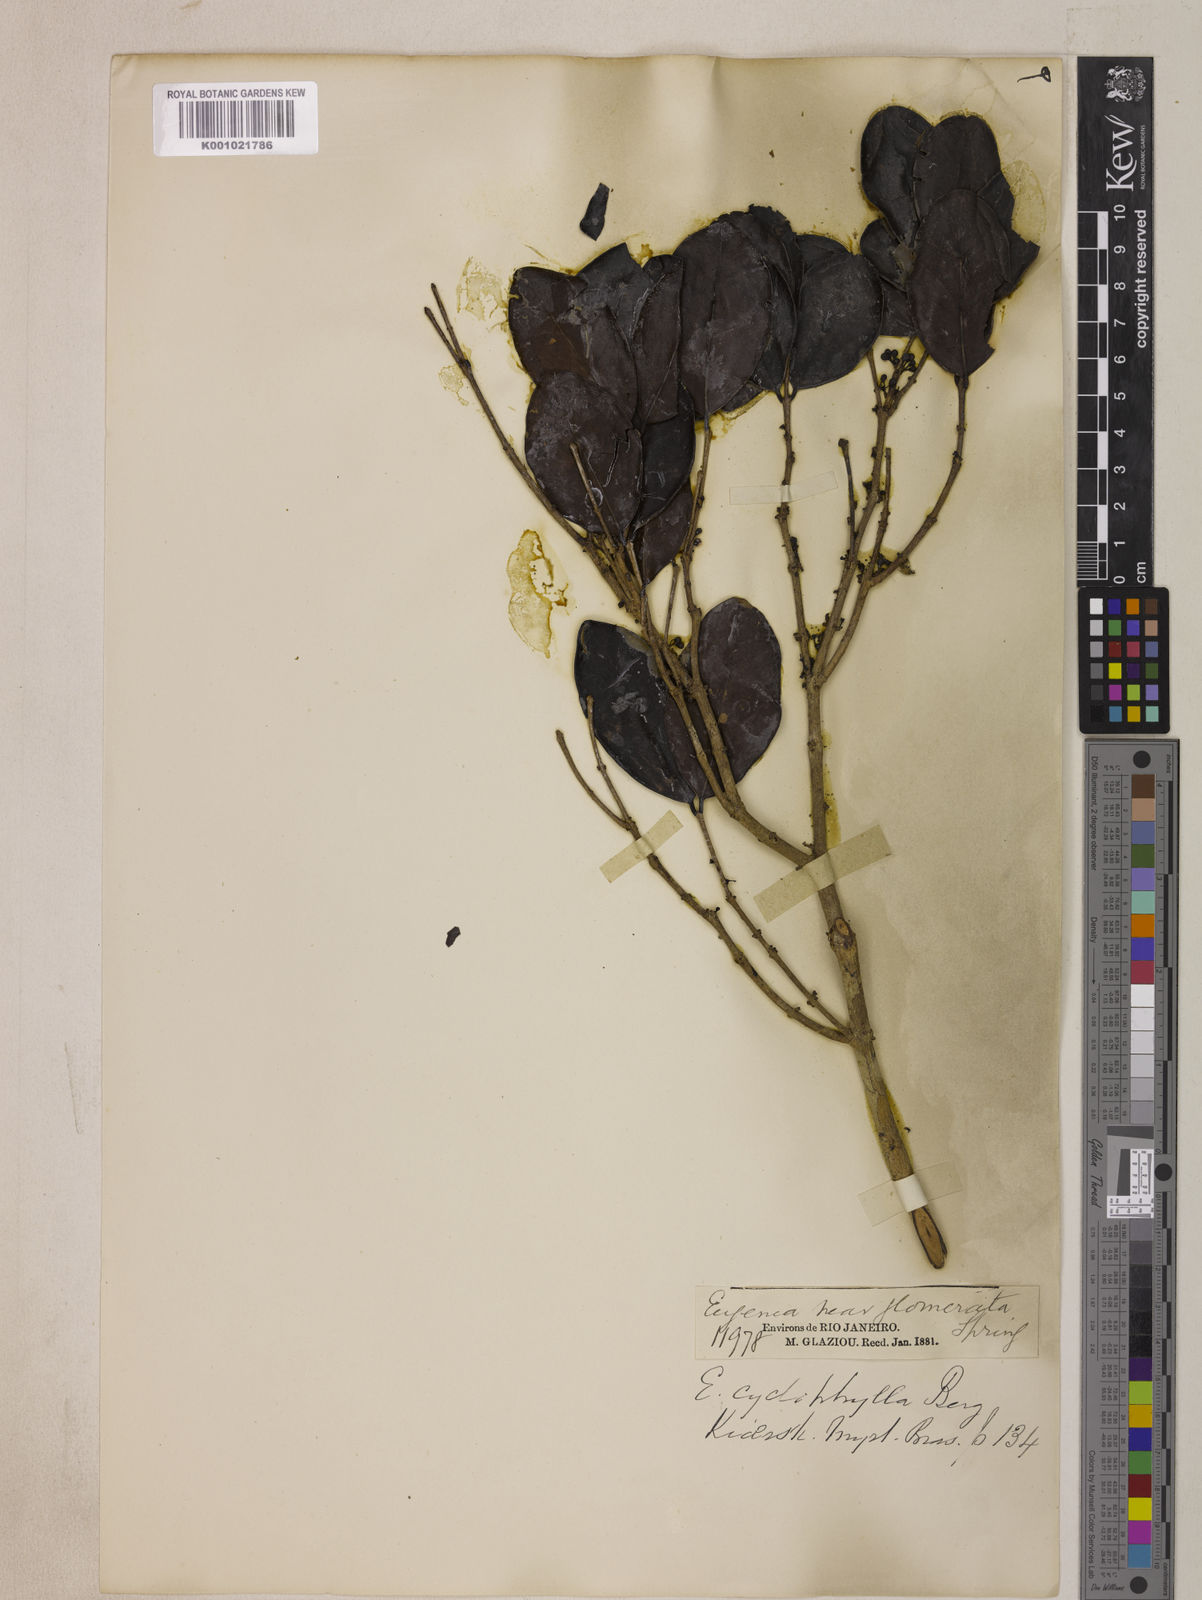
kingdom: Plantae
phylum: Tracheophyta
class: Magnoliopsida
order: Myrtales
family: Myrtaceae
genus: Eugenia
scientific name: Eugenia cyclophylla
